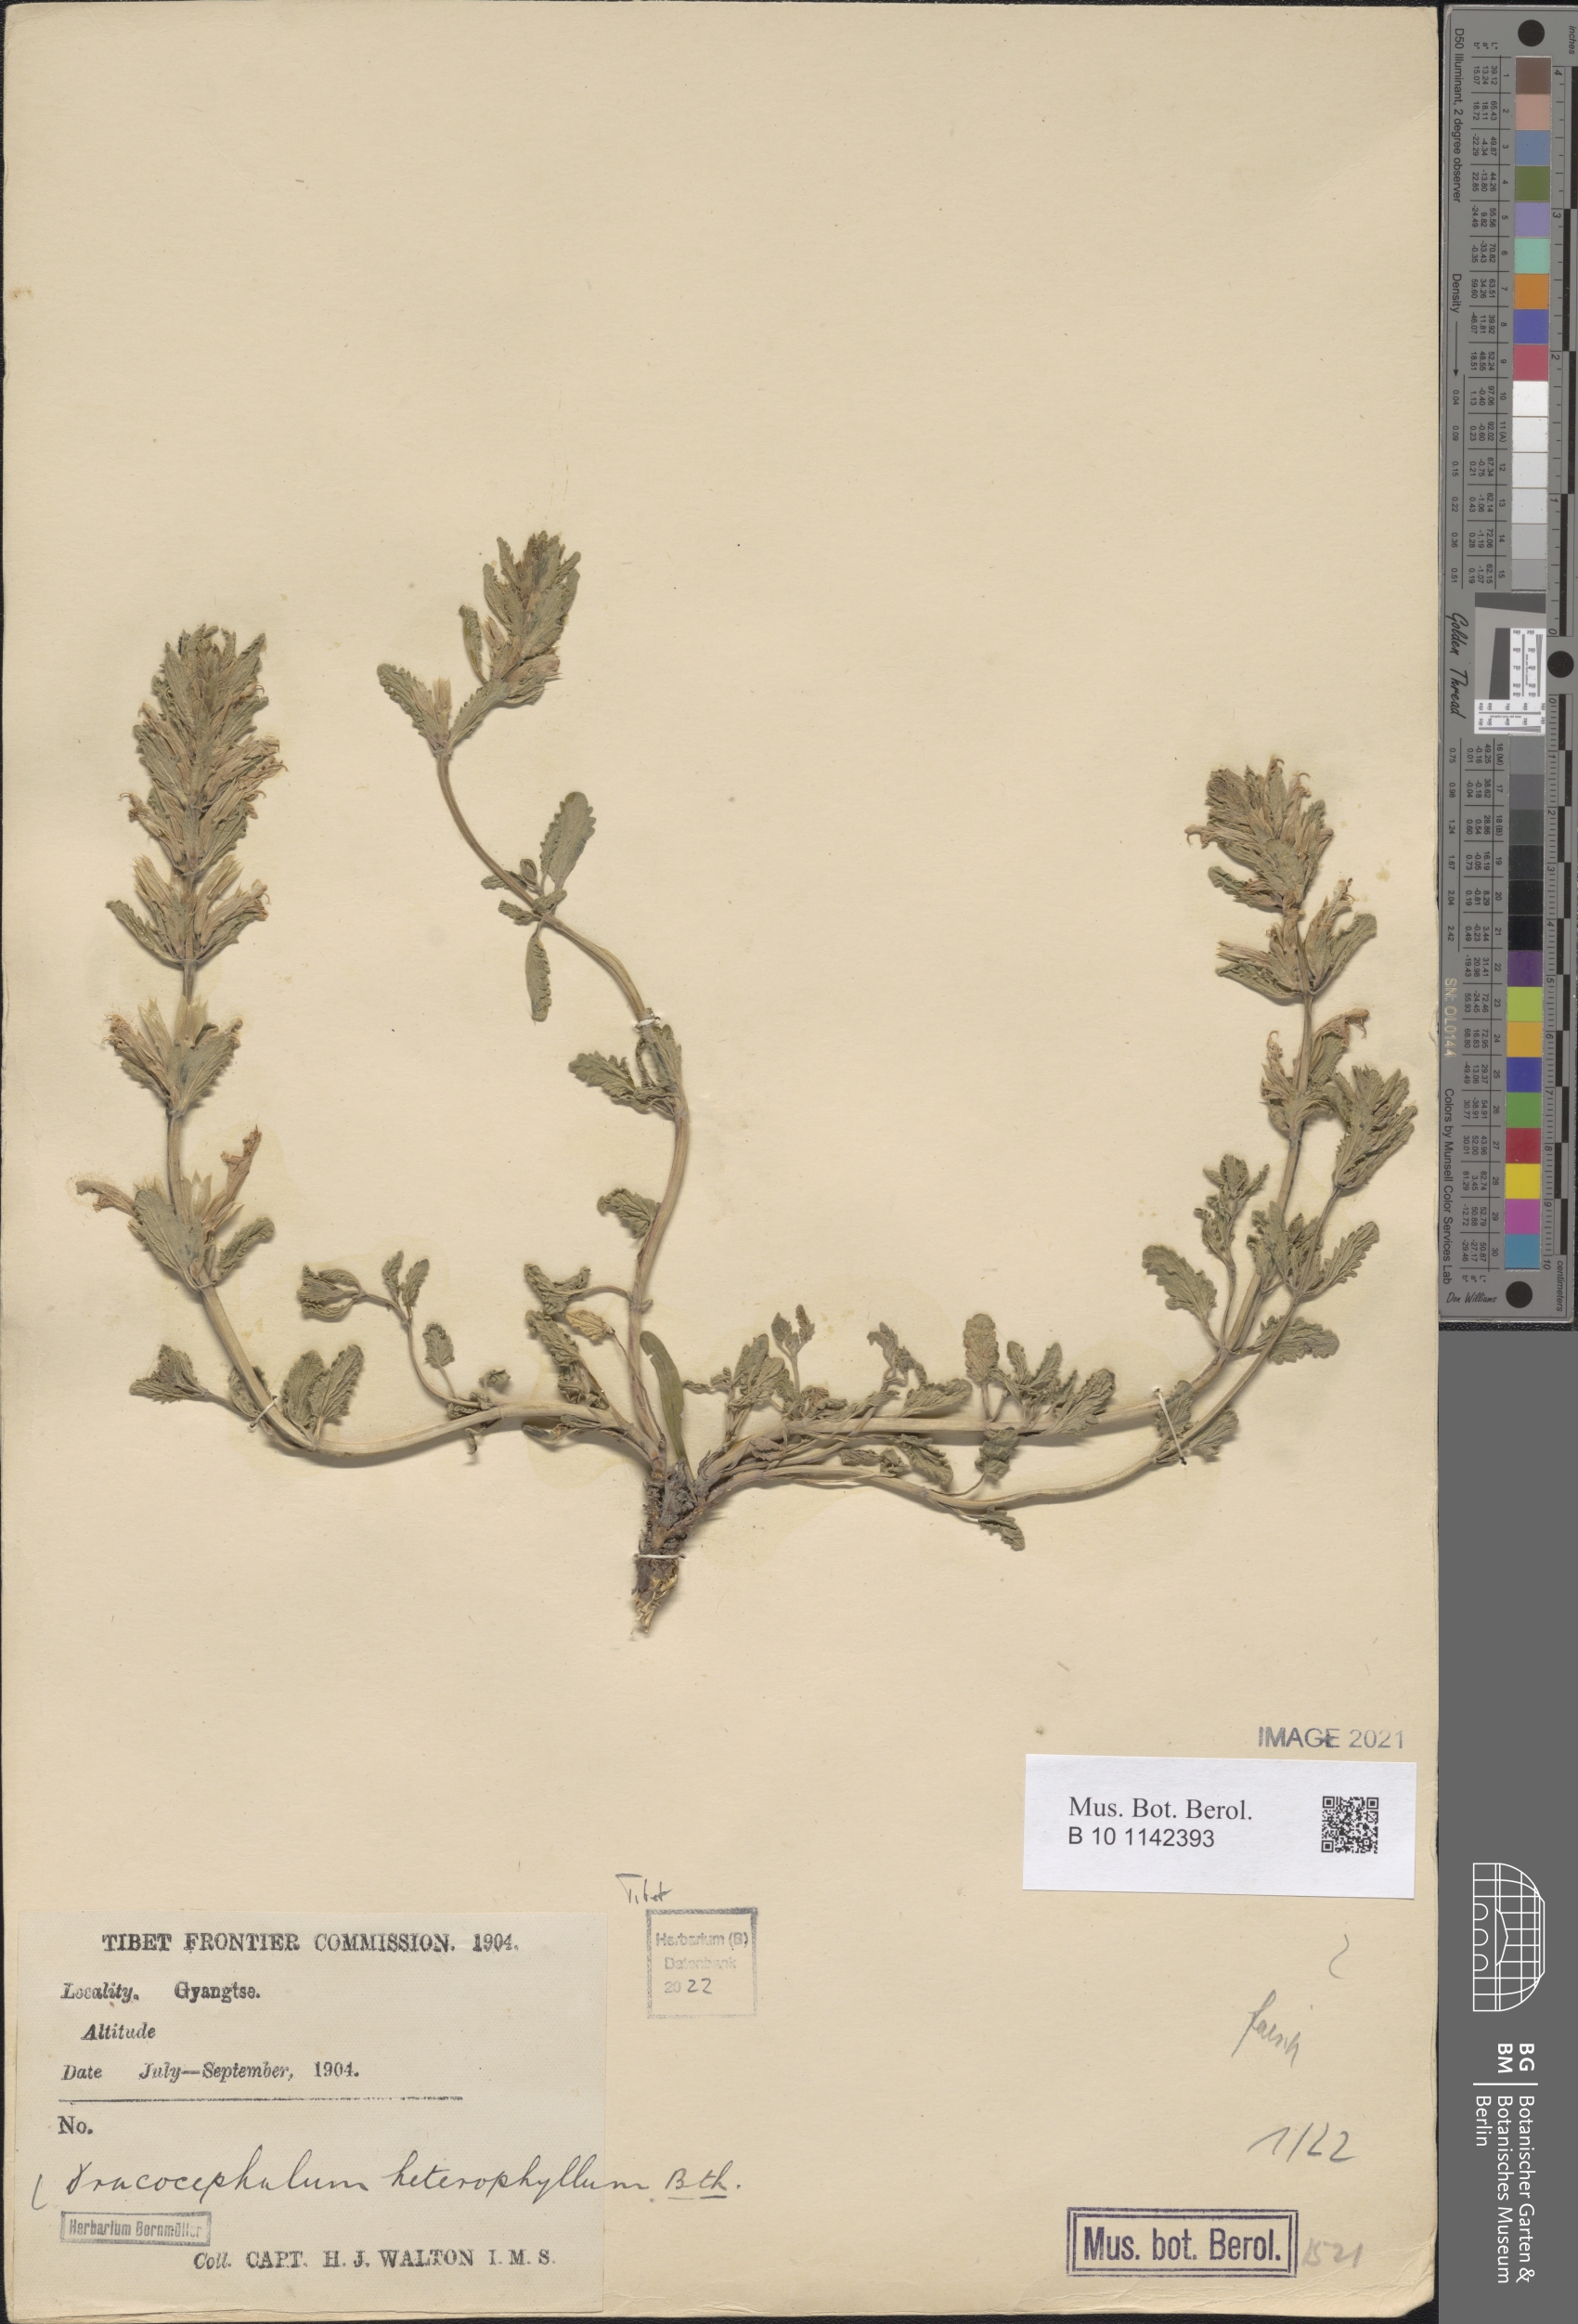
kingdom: Plantae
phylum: Tracheophyta
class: Magnoliopsida
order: Lamiales
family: Lamiaceae
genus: Dracocephalum
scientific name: Dracocephalum heterophyllum
